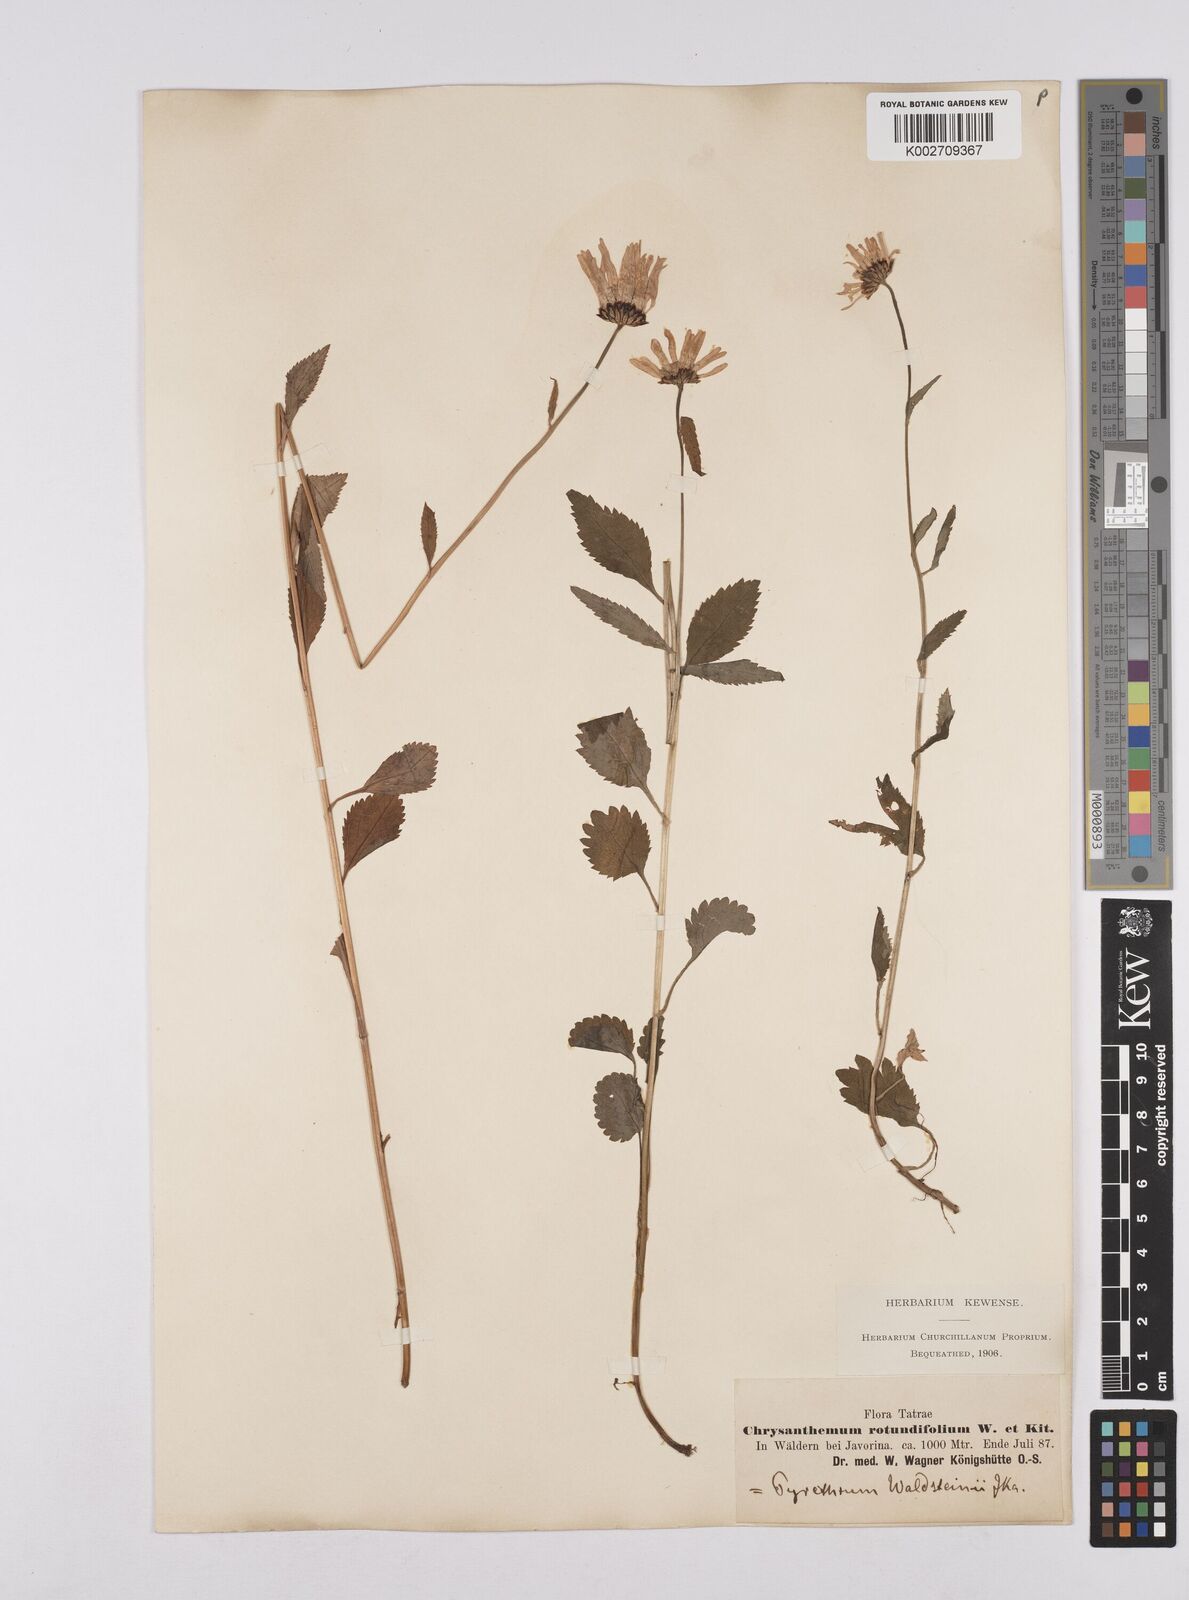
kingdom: Plantae
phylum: Tracheophyta
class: Magnoliopsida
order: Asterales
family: Asteraceae
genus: Leucanthemum
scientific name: Leucanthemum rotundifolium
